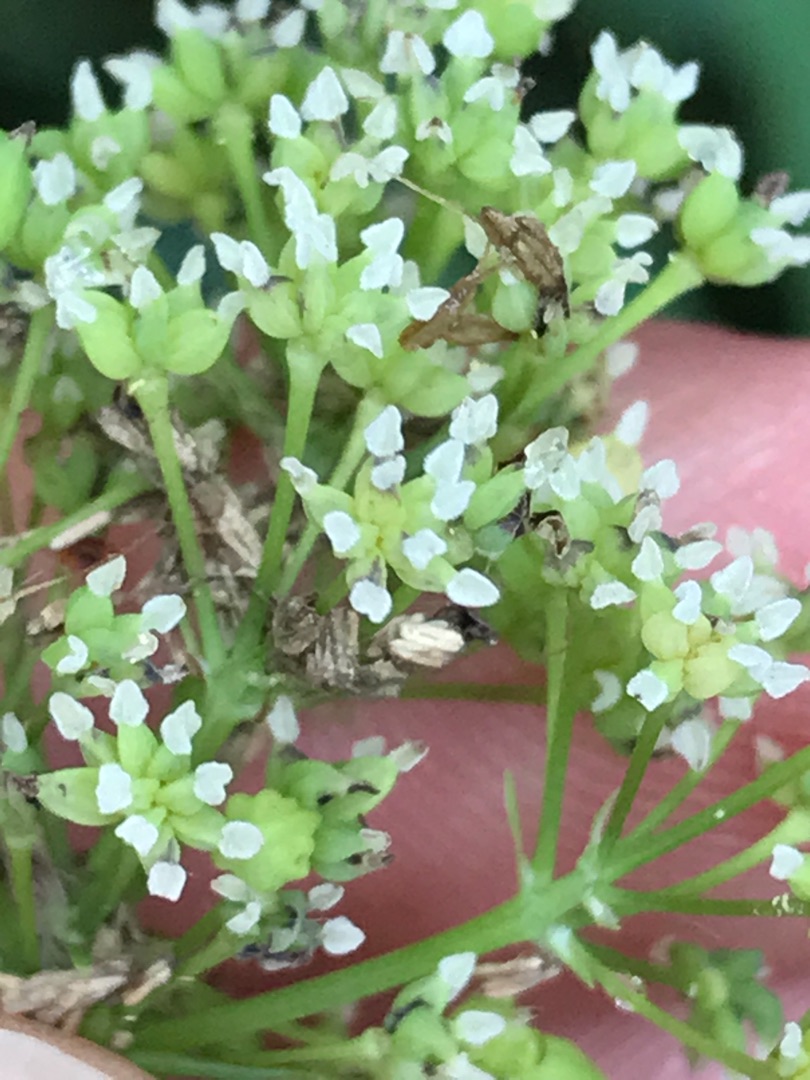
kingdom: Plantae
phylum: Tracheophyta
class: Magnoliopsida
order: Ranunculales
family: Ranunculaceae
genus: Thalictrum
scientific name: Thalictrum flavum
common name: Gul frøstjerne
